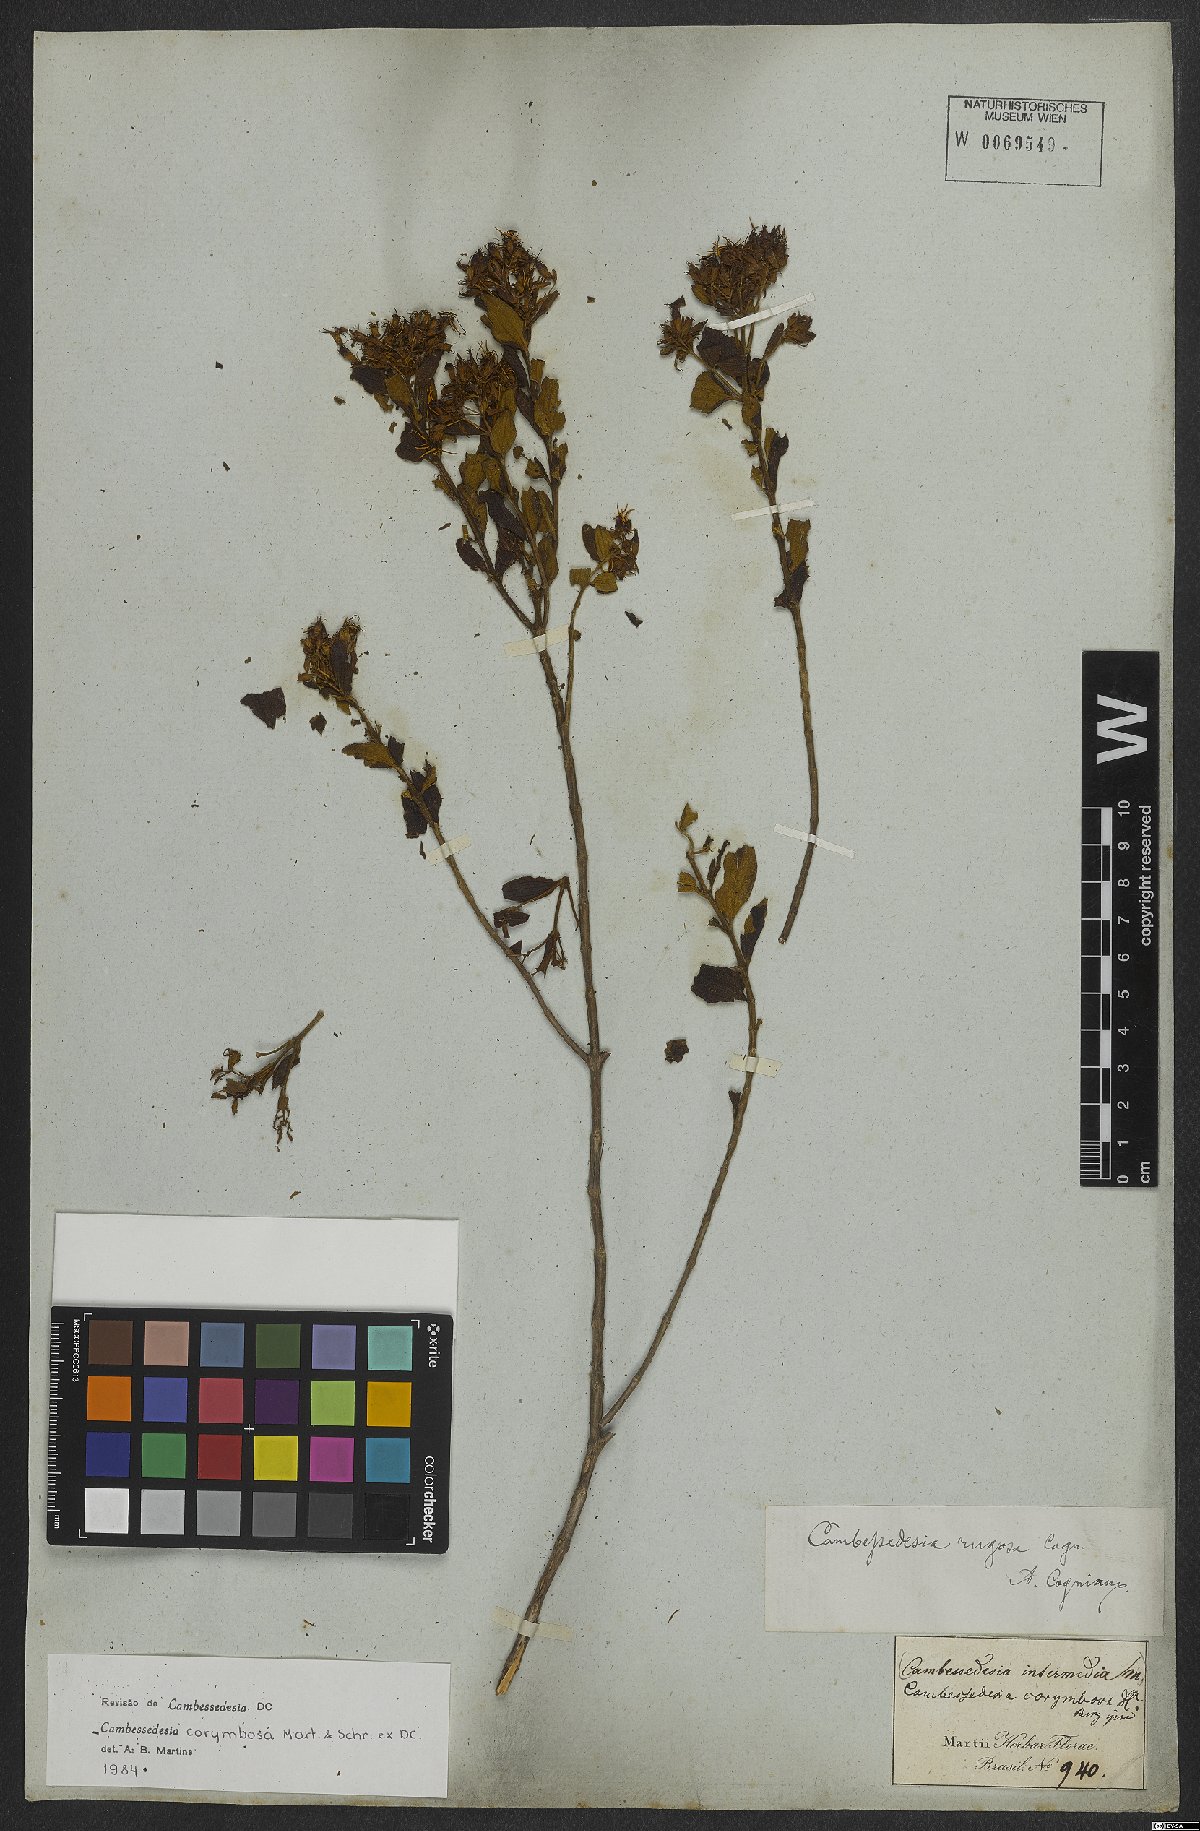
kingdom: Plantae
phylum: Tracheophyta
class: Magnoliopsida
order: Myrtales
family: Melastomataceae
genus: Cambessedesia
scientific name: Cambessedesia corymbosa
